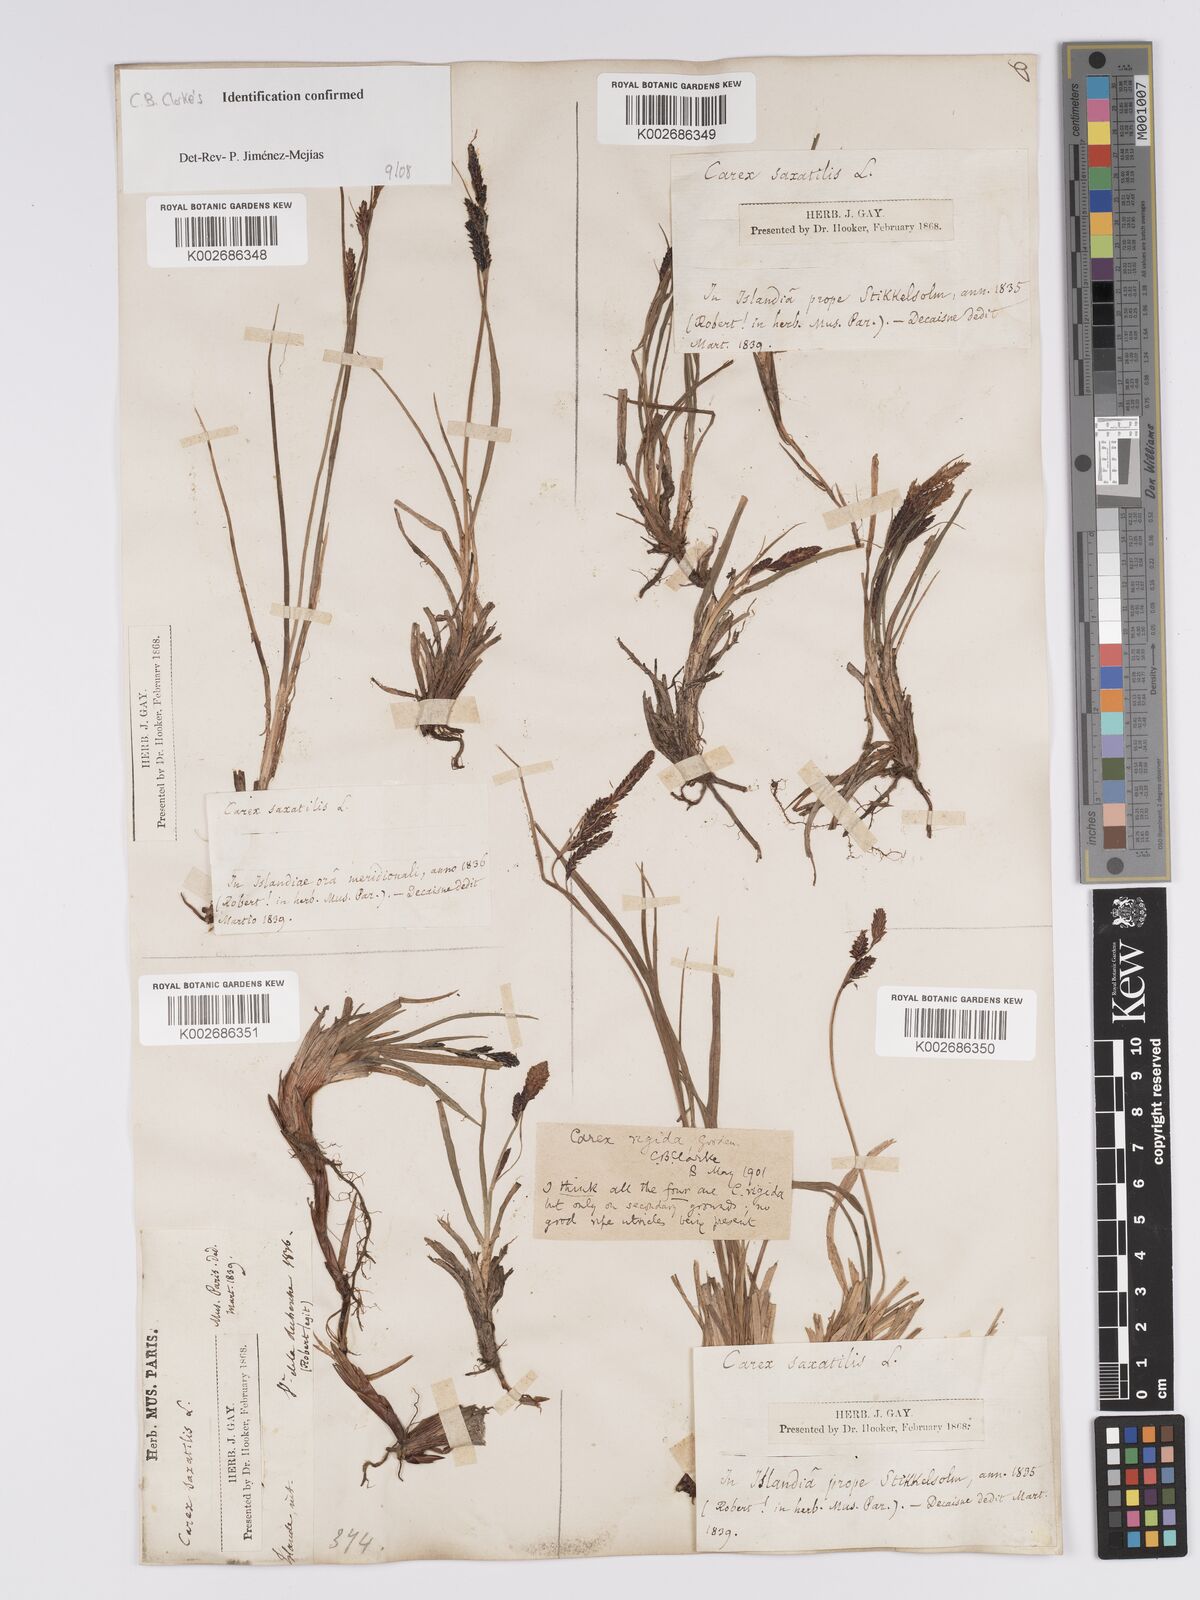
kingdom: Plantae
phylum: Tracheophyta
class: Liliopsida
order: Poales
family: Cyperaceae
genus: Carex
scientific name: Carex bigelowii
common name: Stiff sedge
